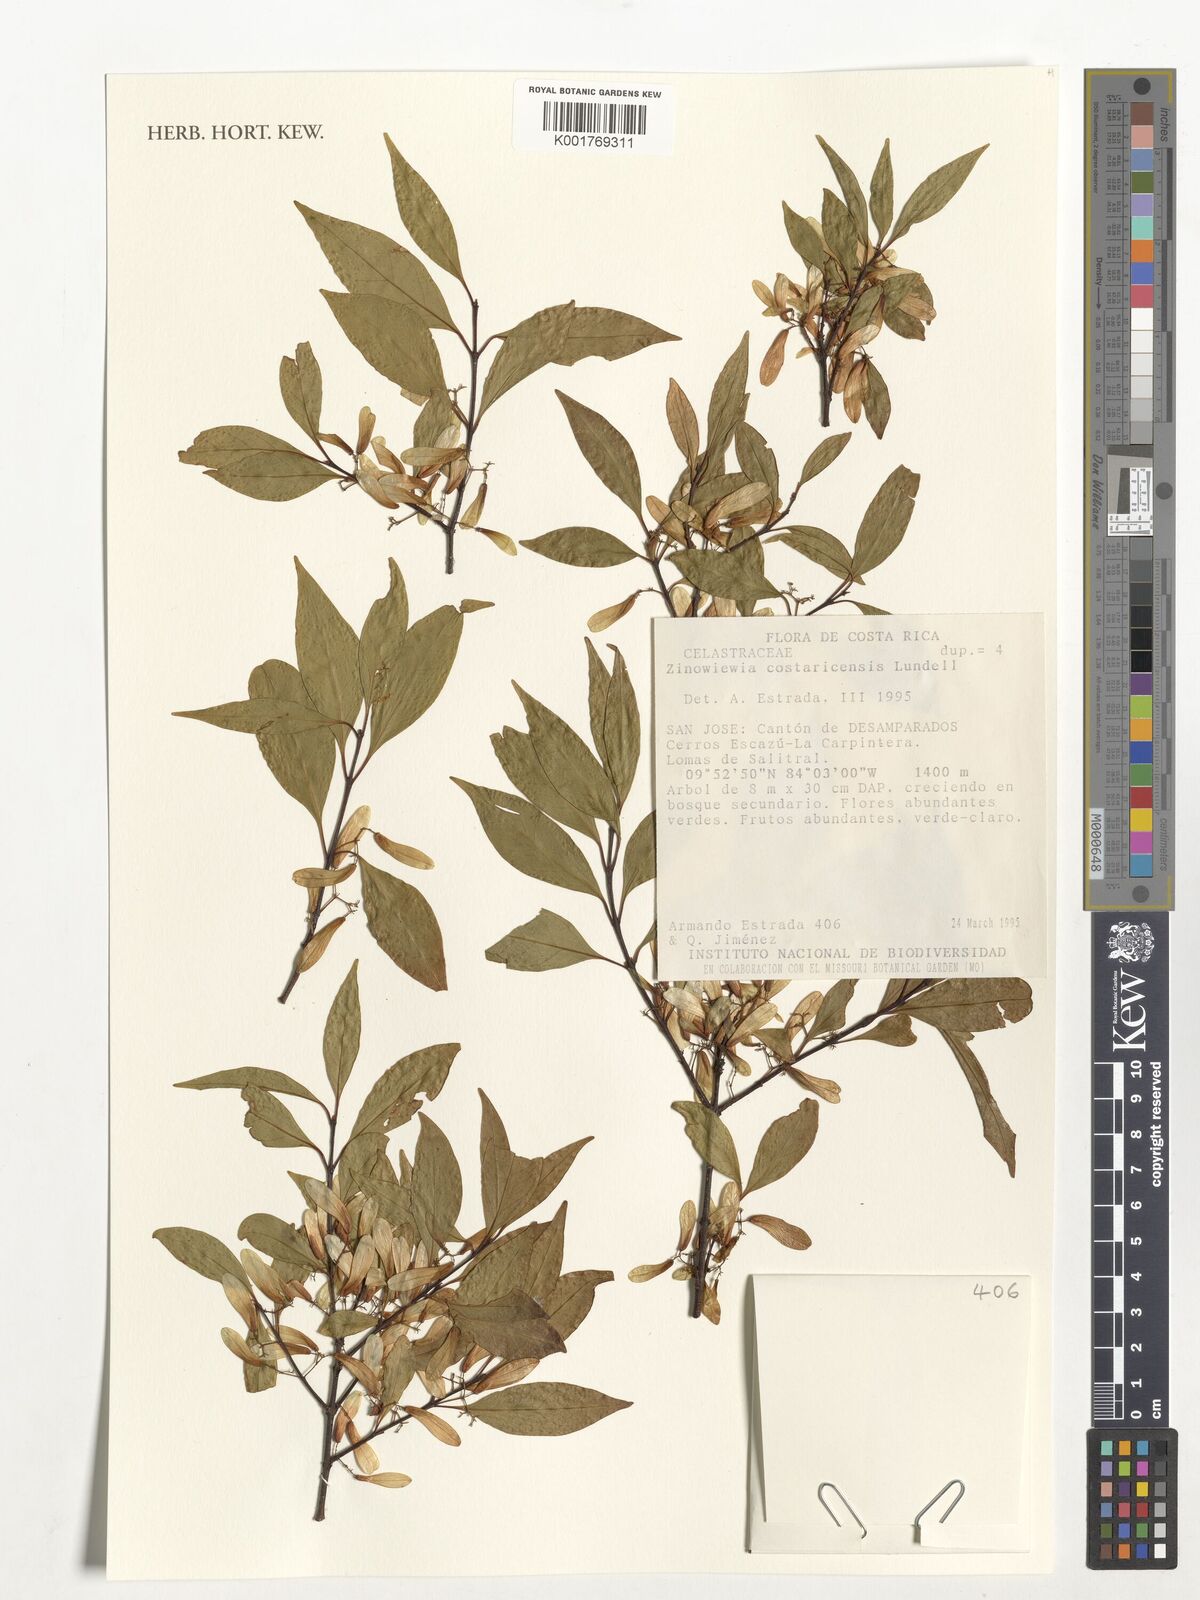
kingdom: Plantae
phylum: Tracheophyta
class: Magnoliopsida
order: Celastrales
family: Celastraceae
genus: Zinowiewia
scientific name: Zinowiewia integerrima
